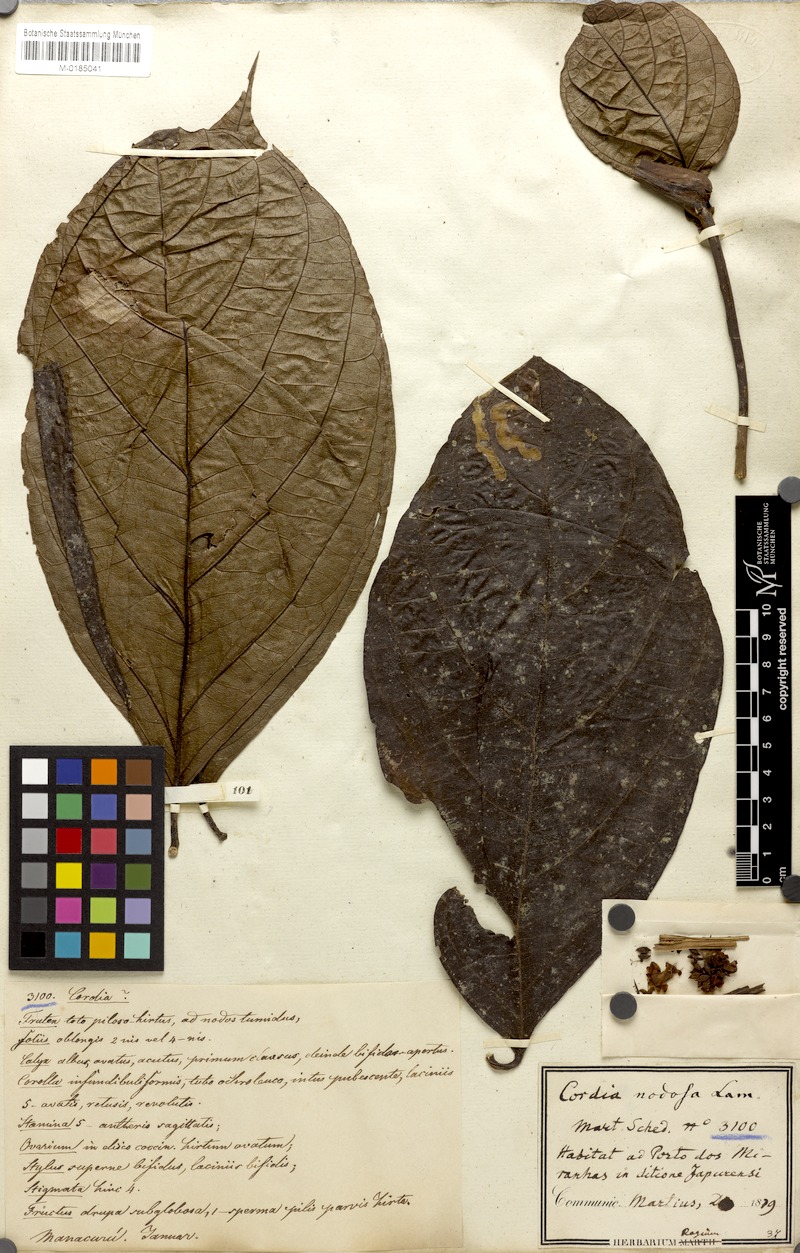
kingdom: Plantae
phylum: Tracheophyta
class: Magnoliopsida
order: Boraginales
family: Cordiaceae
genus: Cordia
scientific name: Cordia nodosa
